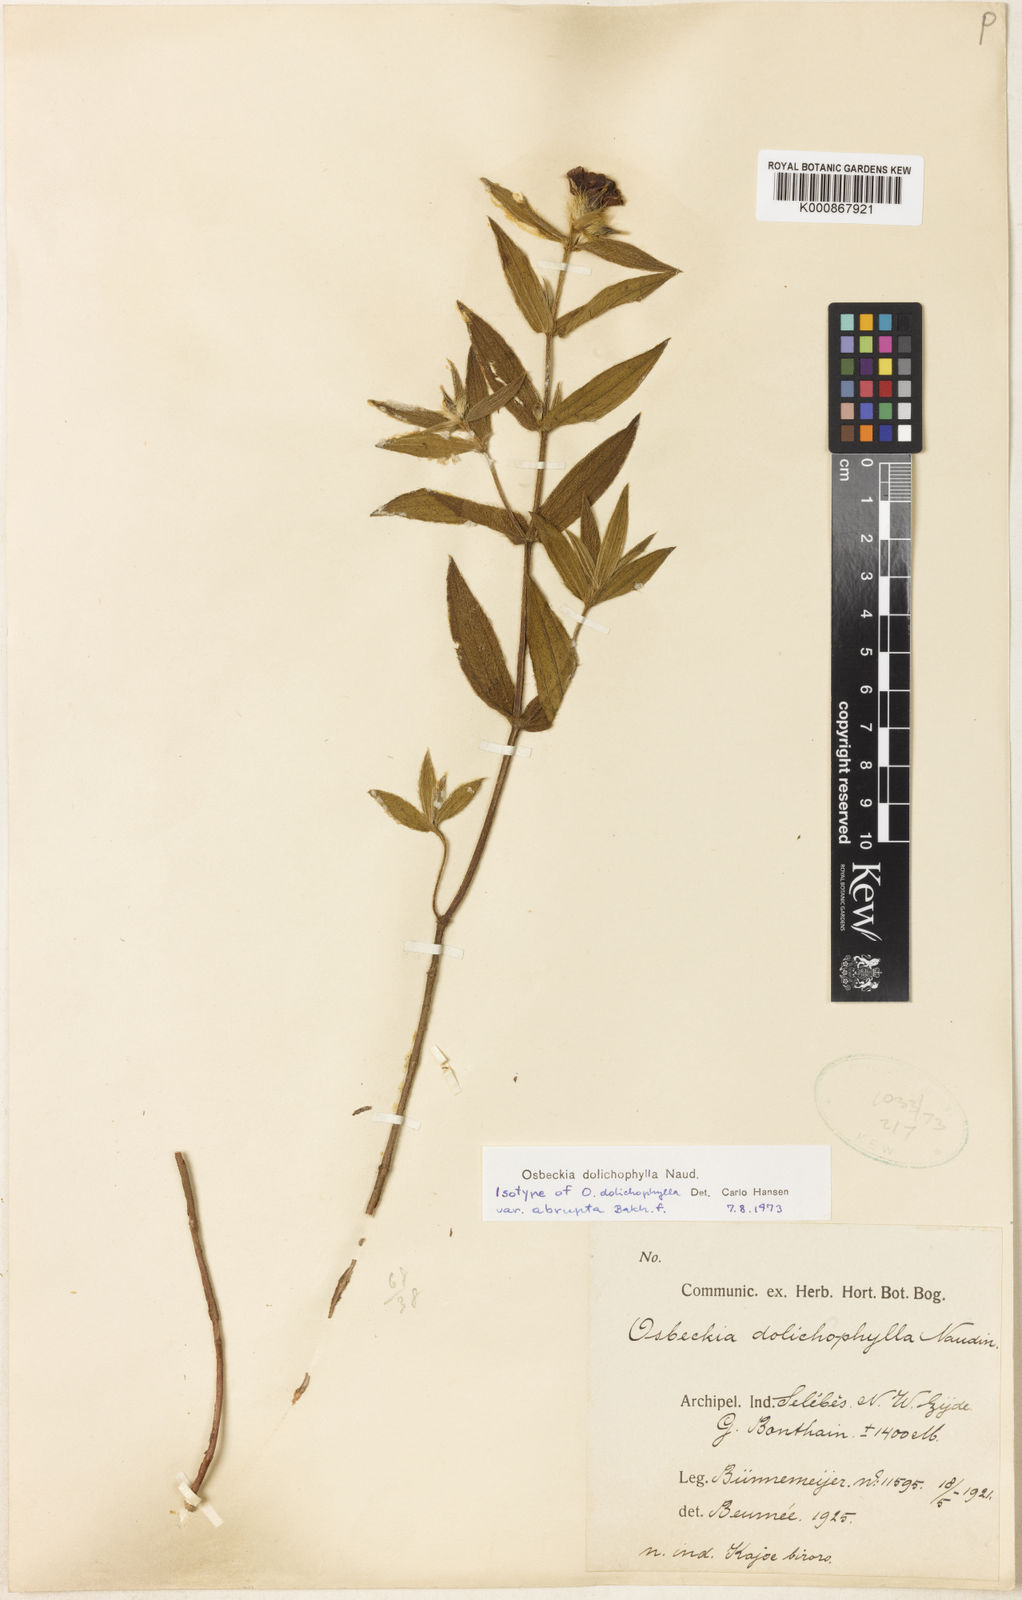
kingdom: Plantae
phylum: Tracheophyta
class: Magnoliopsida
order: Myrtales
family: Melastomataceae
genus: Osbeckia
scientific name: Osbeckia dolichophylla
